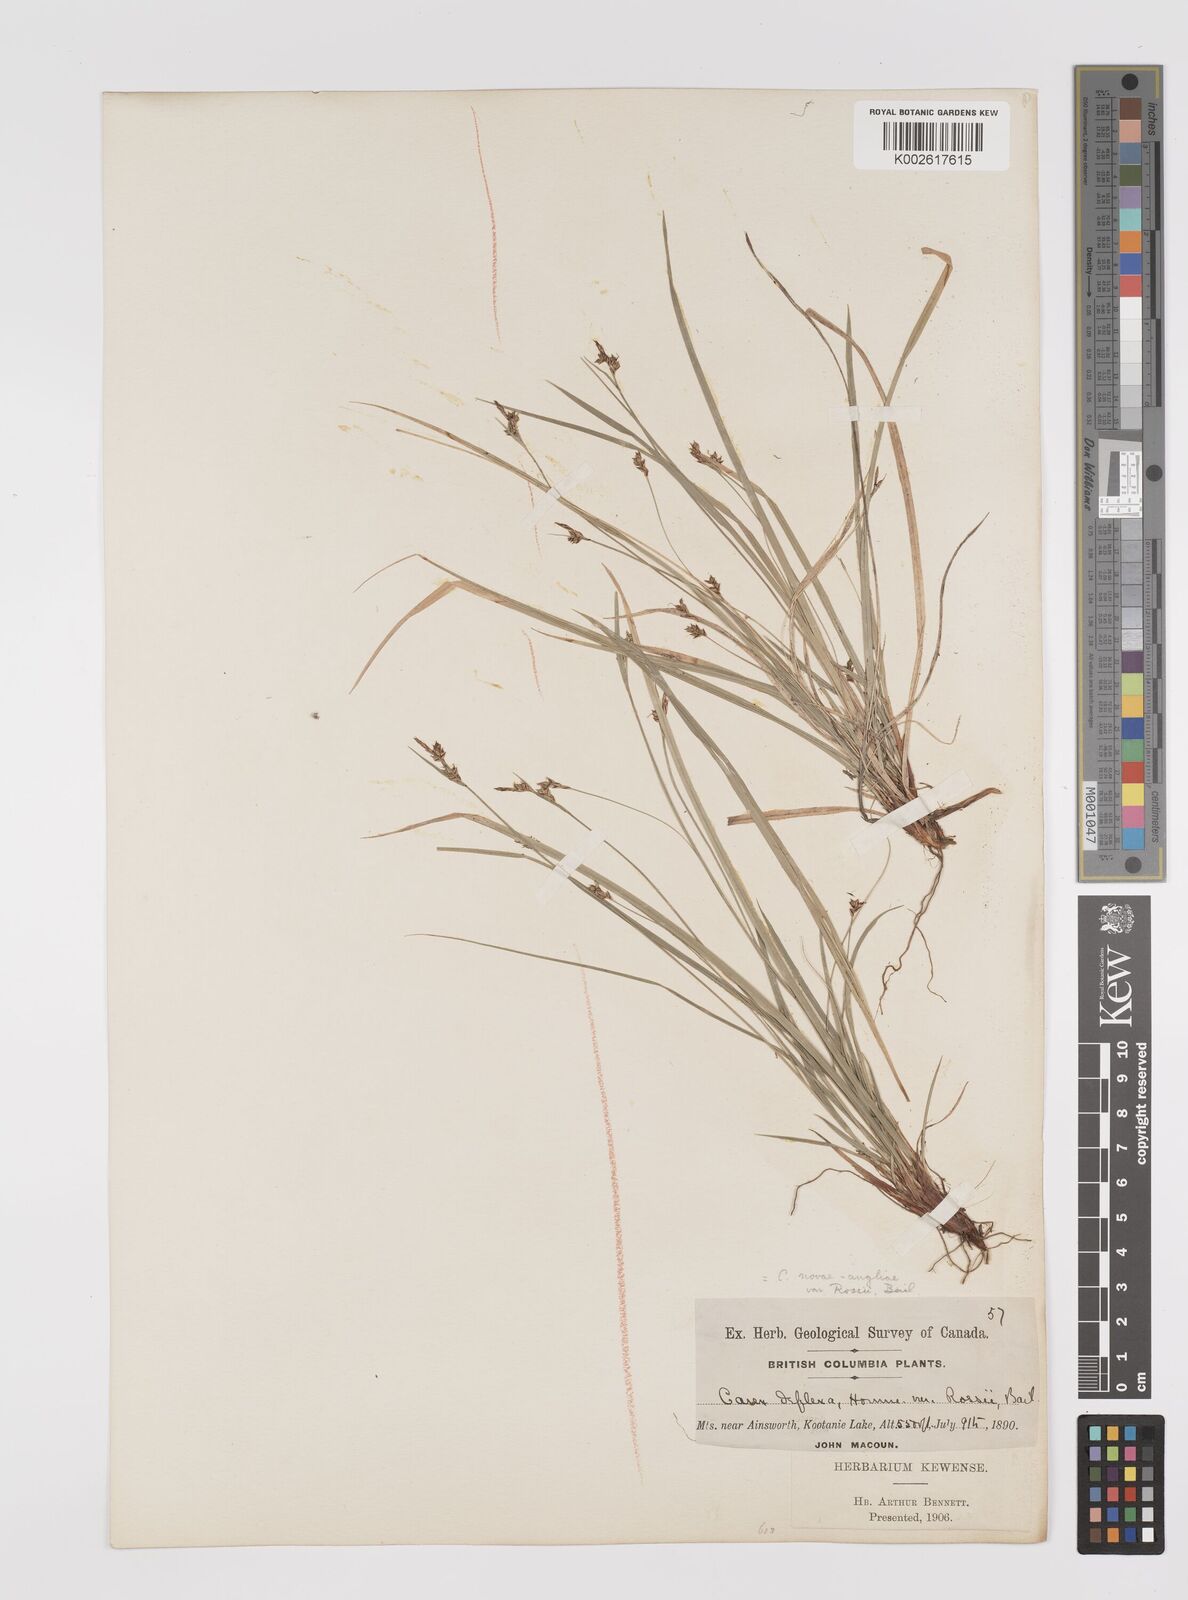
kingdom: Plantae
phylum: Tracheophyta
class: Liliopsida
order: Poales
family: Cyperaceae
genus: Carex
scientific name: Carex rossii
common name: Ross' sedge
